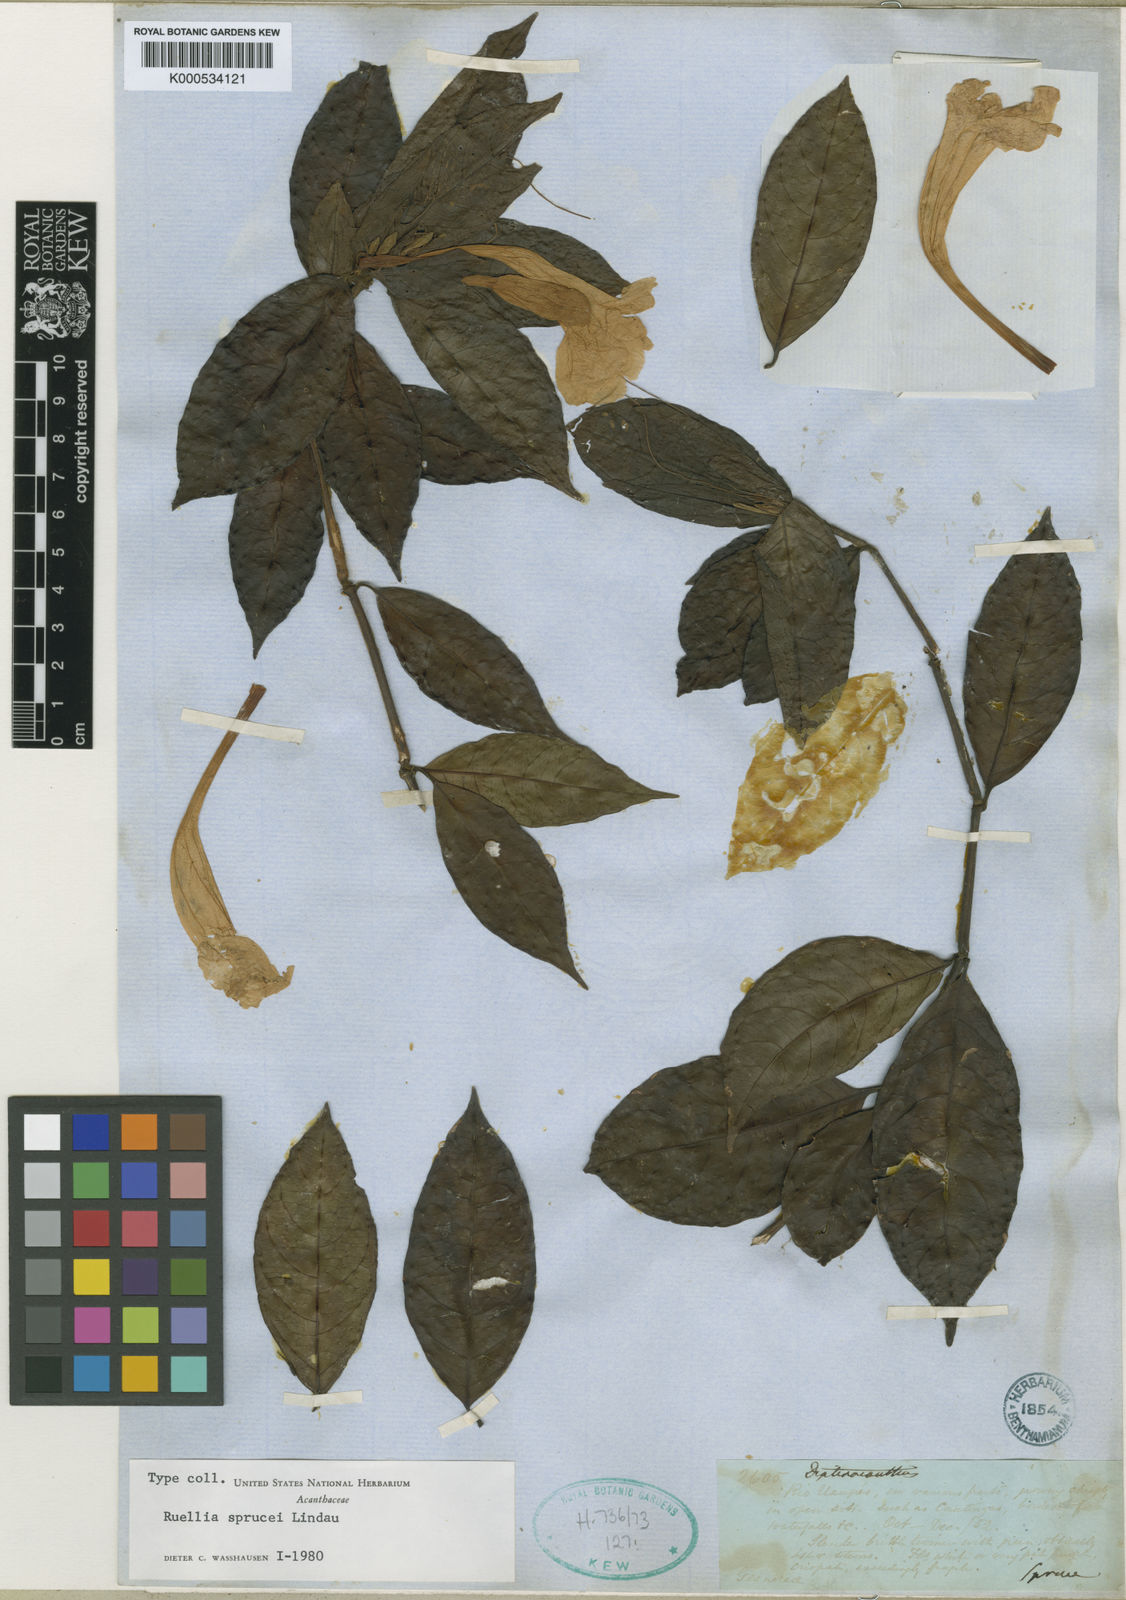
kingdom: Plantae
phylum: Tracheophyta
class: Magnoliopsida
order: Lamiales
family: Acanthaceae
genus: Ruellia
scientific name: Ruellia sprucei
